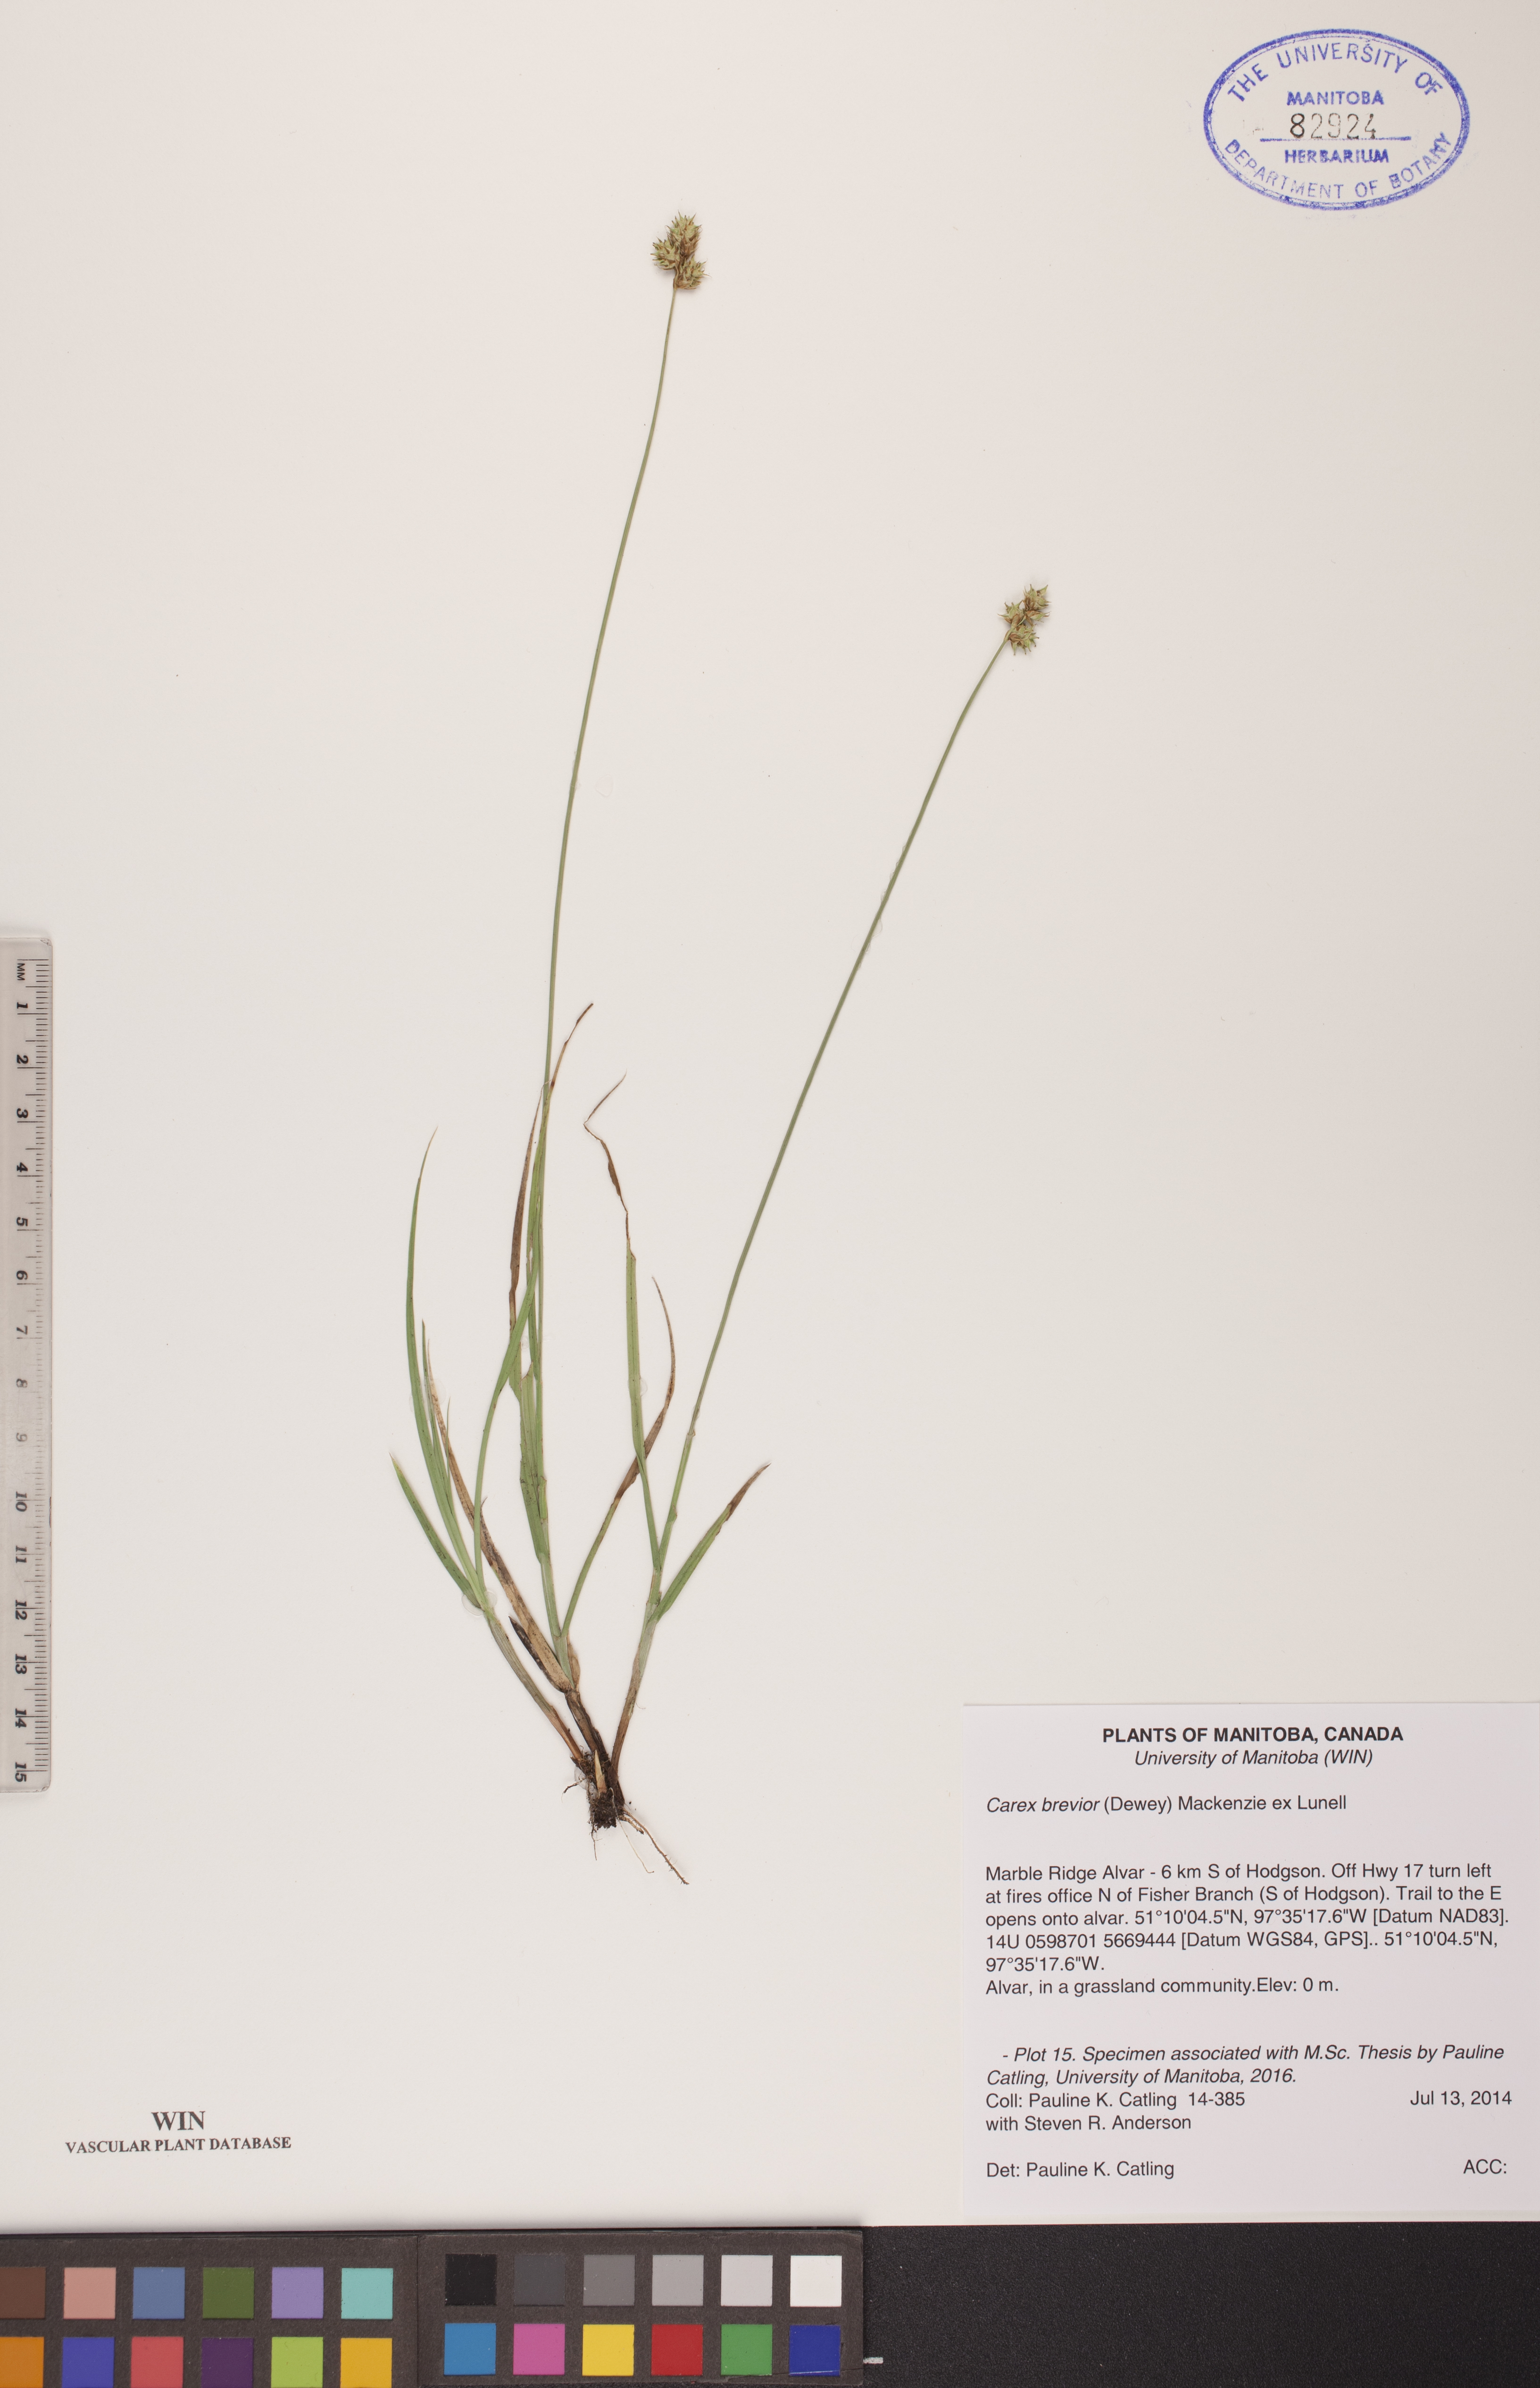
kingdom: Plantae
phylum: Tracheophyta
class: Liliopsida
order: Poales
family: Cyperaceae
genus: Carex
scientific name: Carex brevior
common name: Brevior sedge
